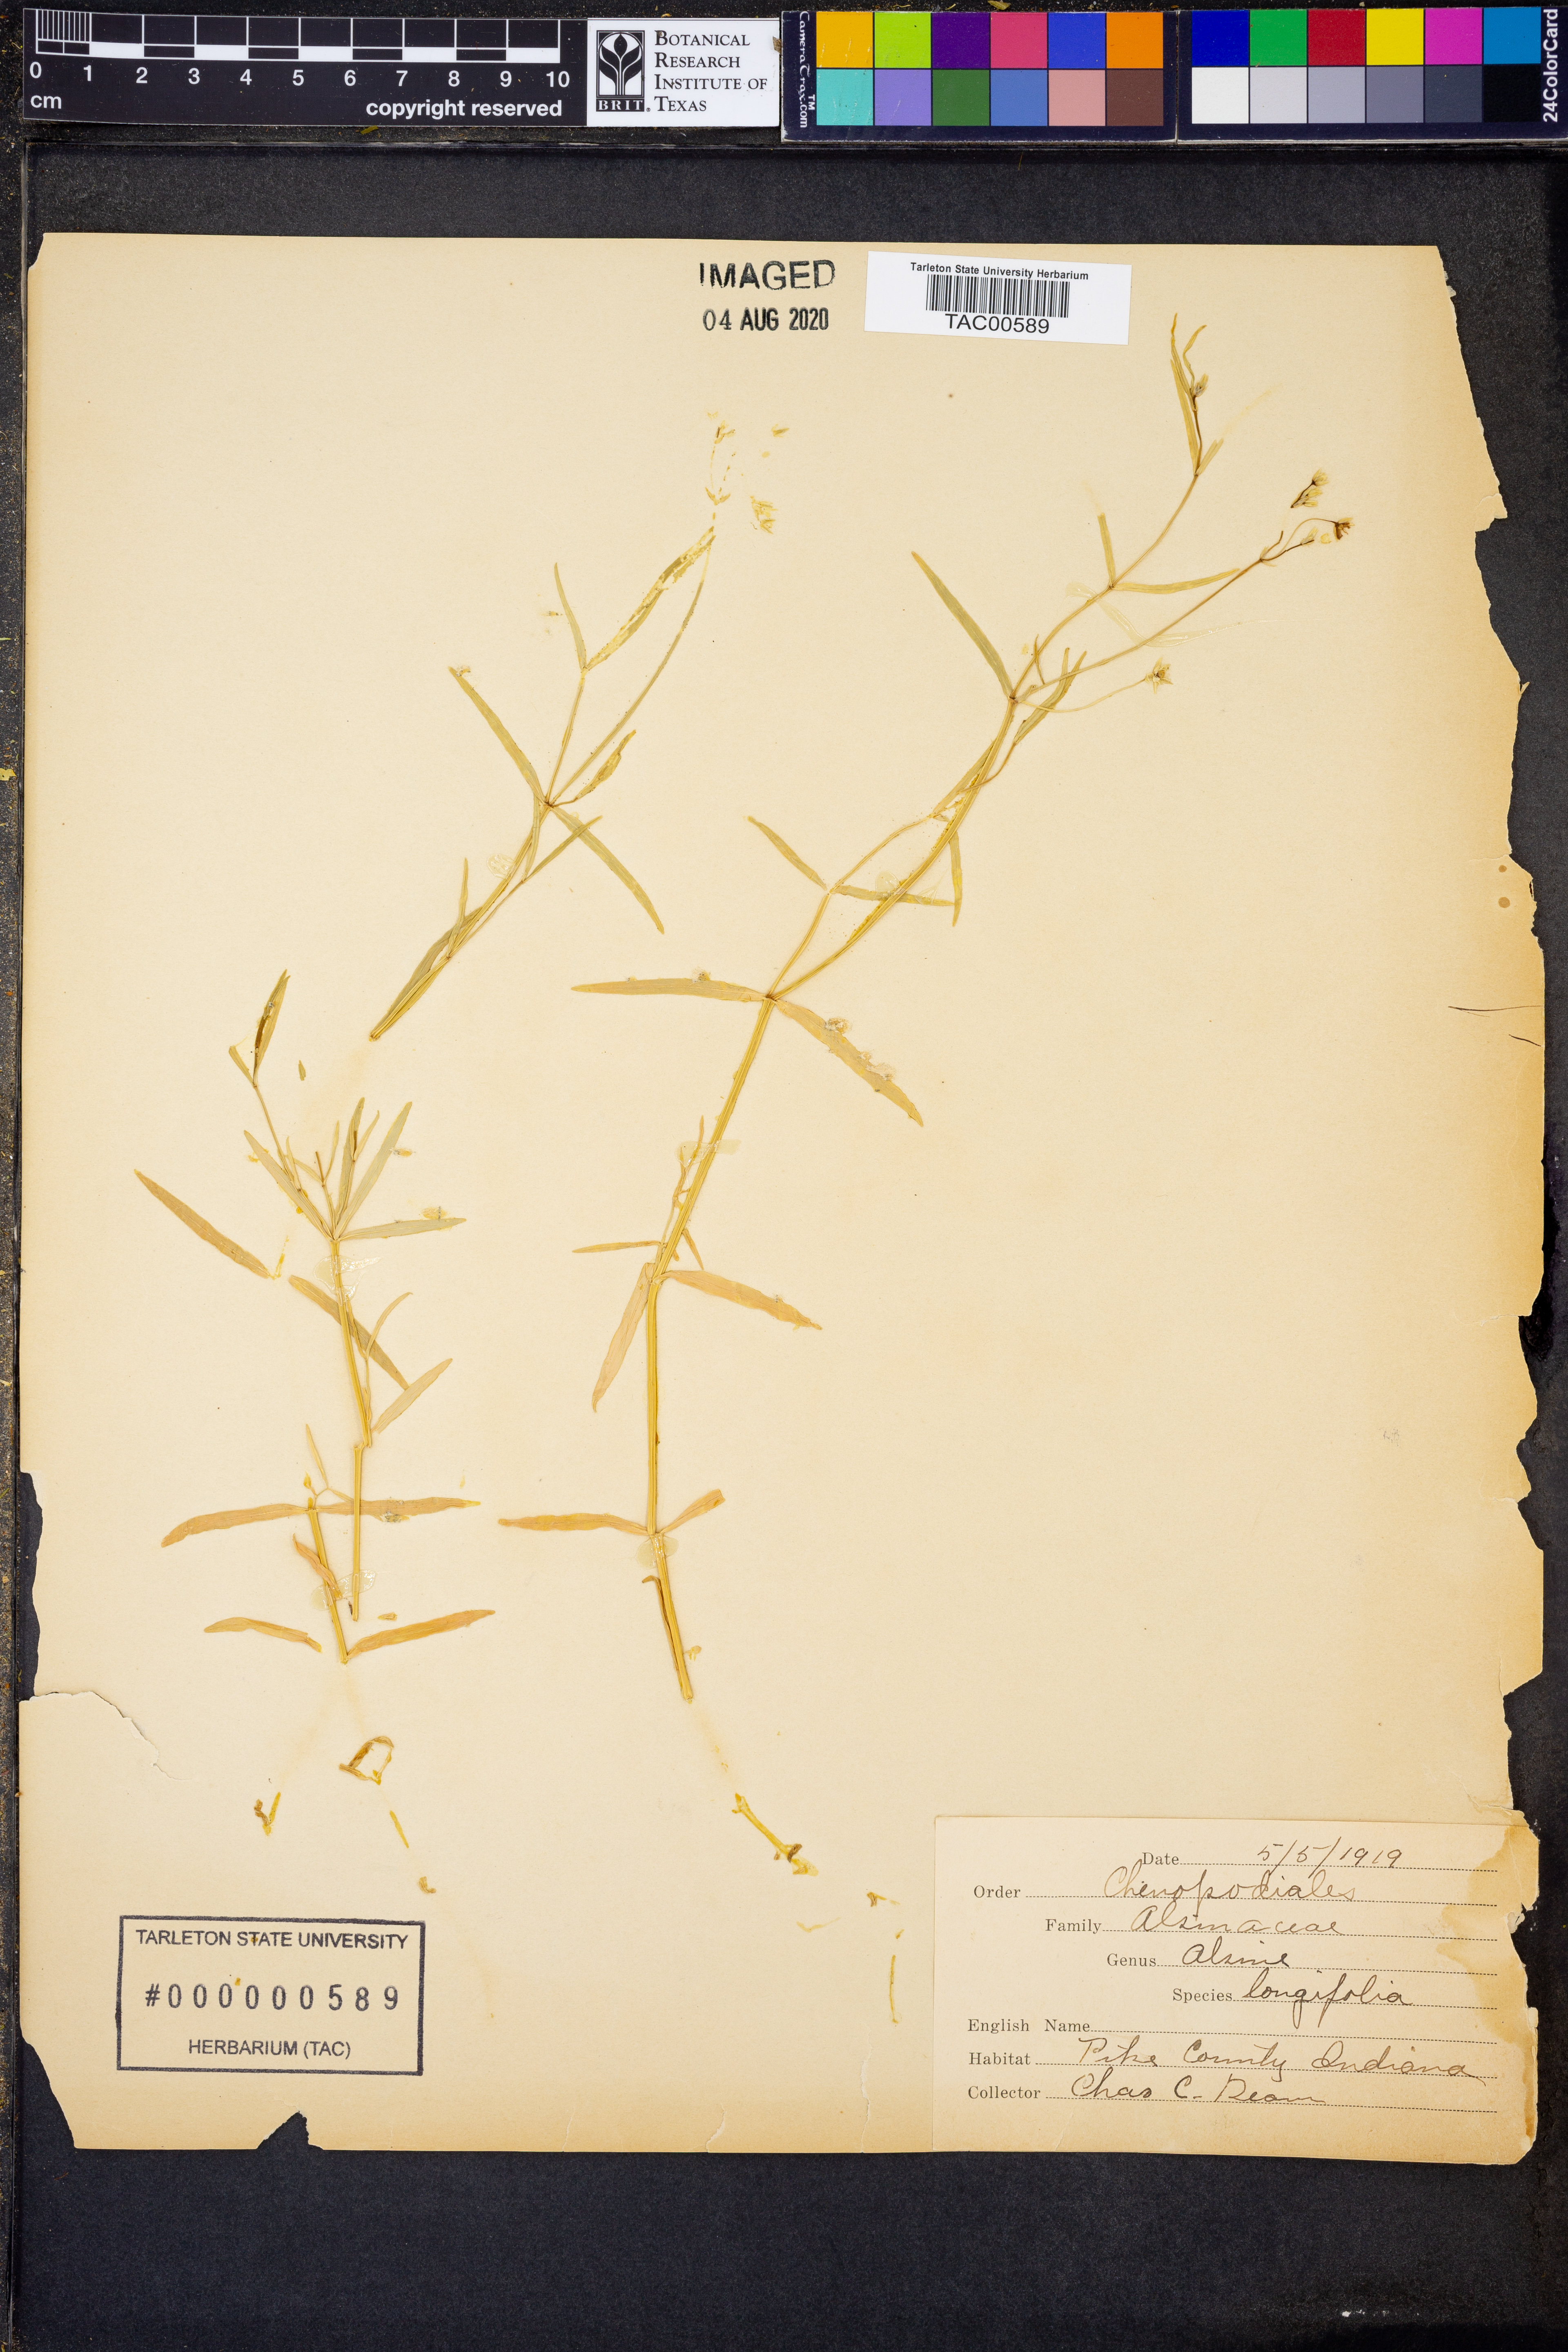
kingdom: Plantae
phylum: Tracheophyta
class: Magnoliopsida
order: Caryophyllales
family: Caryophyllaceae
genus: Stellaria
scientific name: Stellaria longifolia
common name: Long-leaved chickweed
